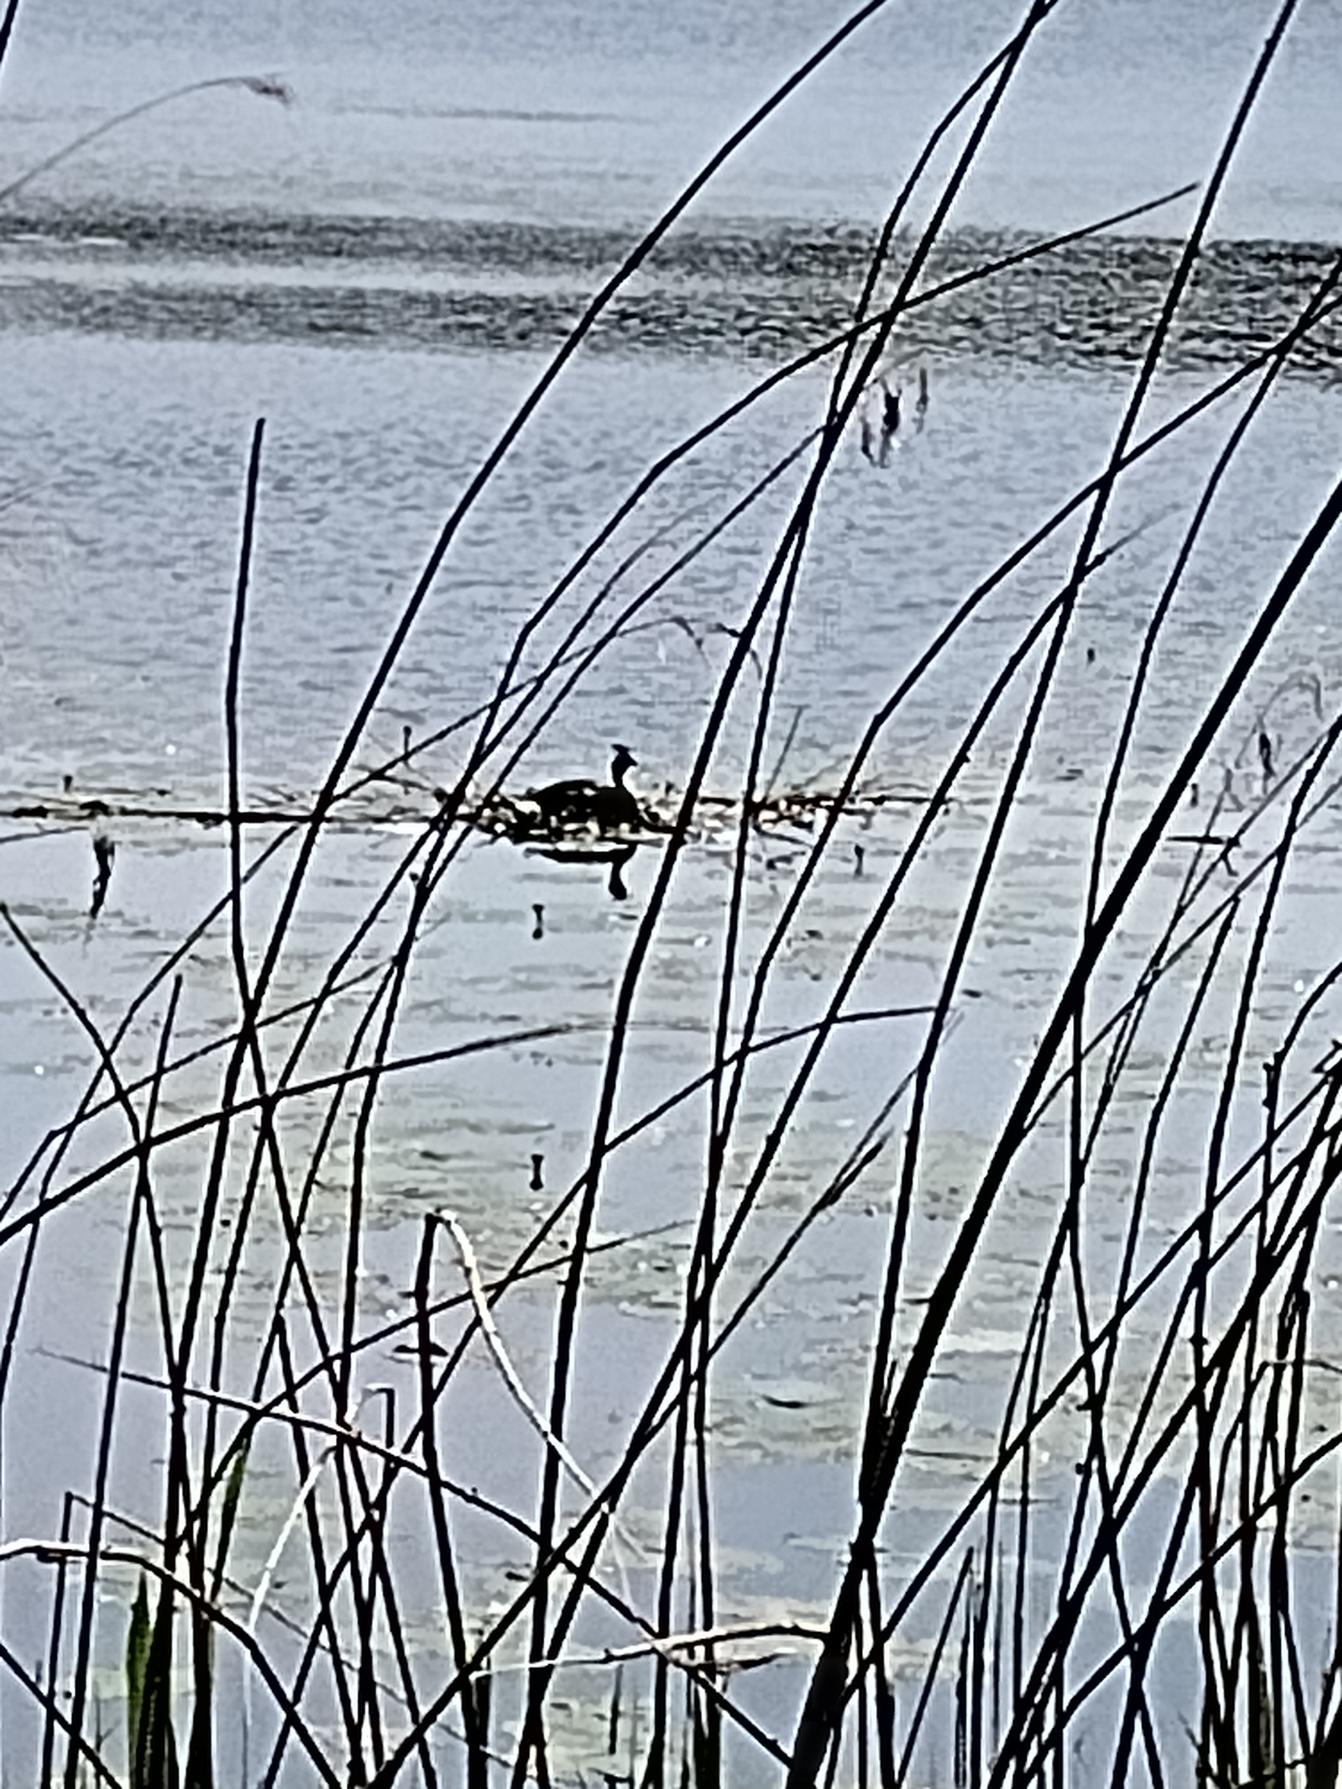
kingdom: Animalia
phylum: Chordata
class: Aves
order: Podicipediformes
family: Podicipedidae
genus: Podiceps
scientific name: Podiceps cristatus
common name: Toppet lappedykker
